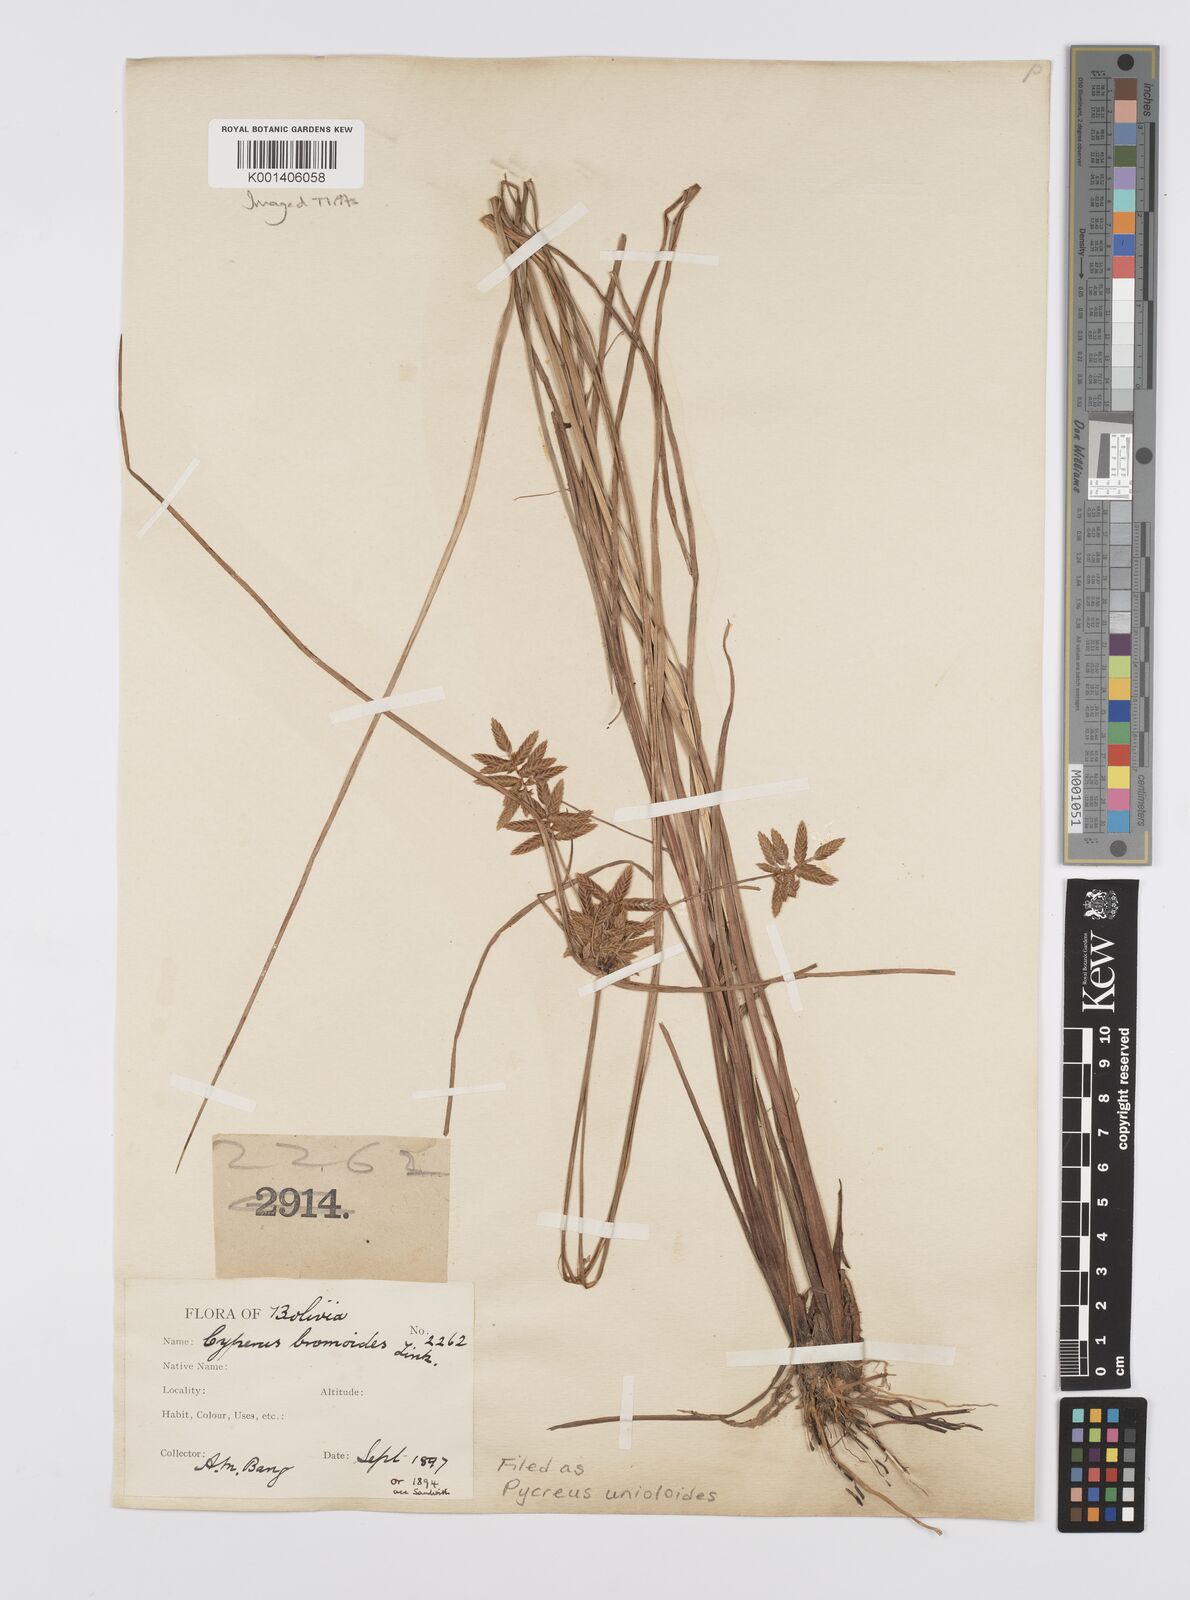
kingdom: Plantae
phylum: Tracheophyta
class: Liliopsida
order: Poales
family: Cyperaceae
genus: Cyperus
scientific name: Cyperus unioloides
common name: Uniola flatsedge
